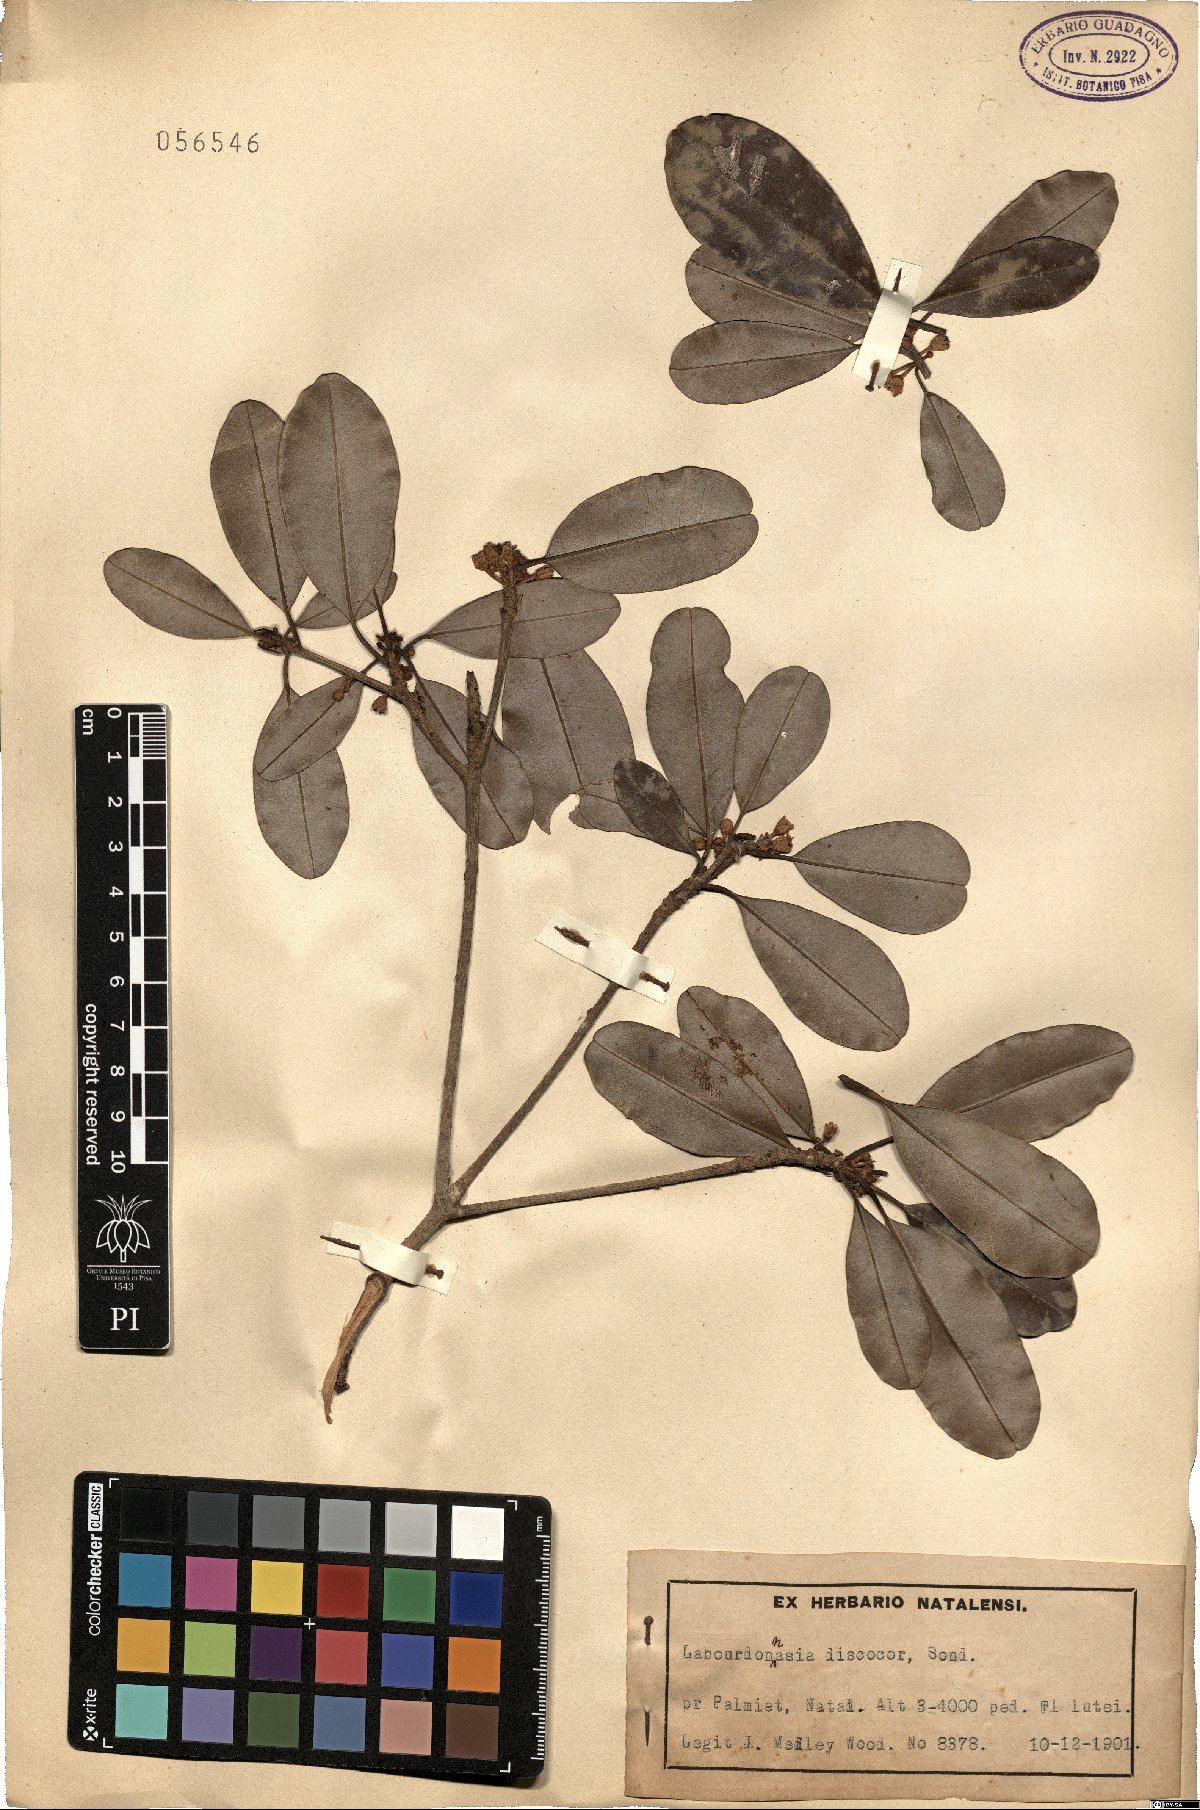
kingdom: Plantae
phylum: Tracheophyta
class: Magnoliopsida
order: Ericales
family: Sapotaceae
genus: Manilkara
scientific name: Manilkara discolor
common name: Forest milkberry
